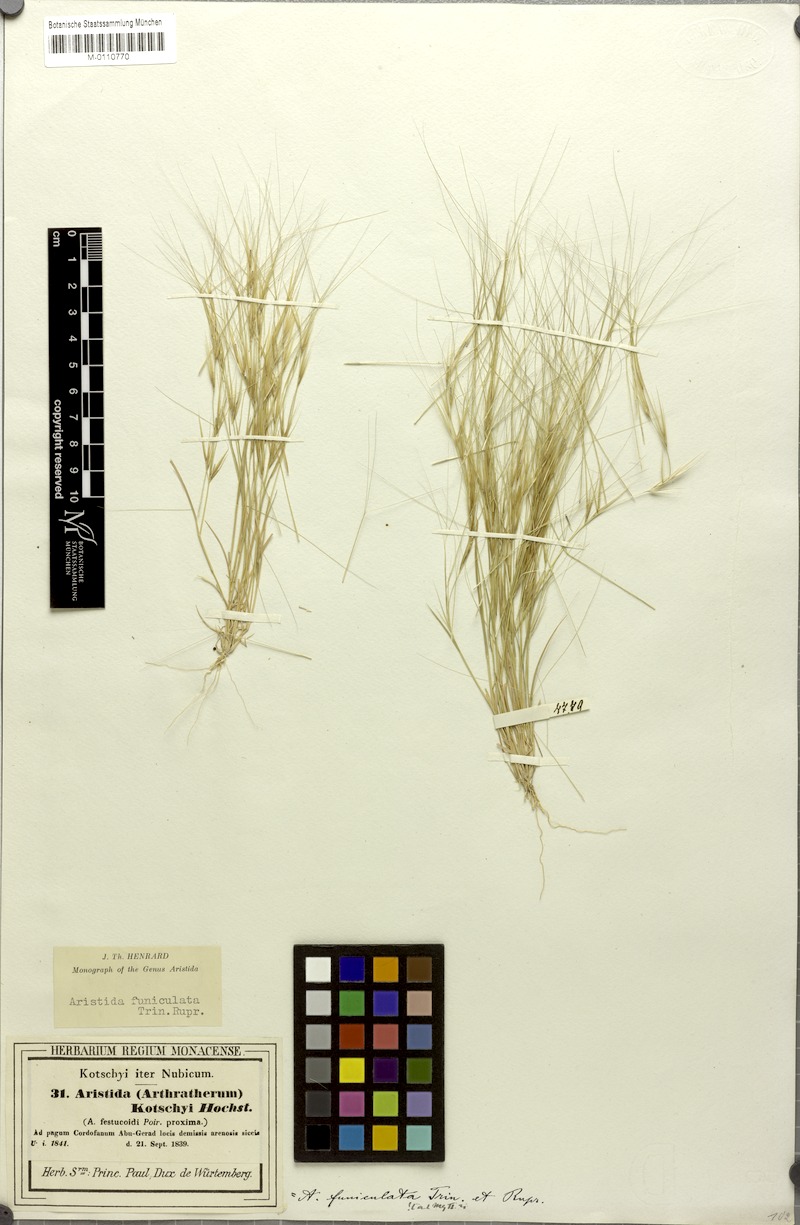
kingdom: Plantae
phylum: Tracheophyta
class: Liliopsida
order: Poales
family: Poaceae
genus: Aristida
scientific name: Aristida funiculata
